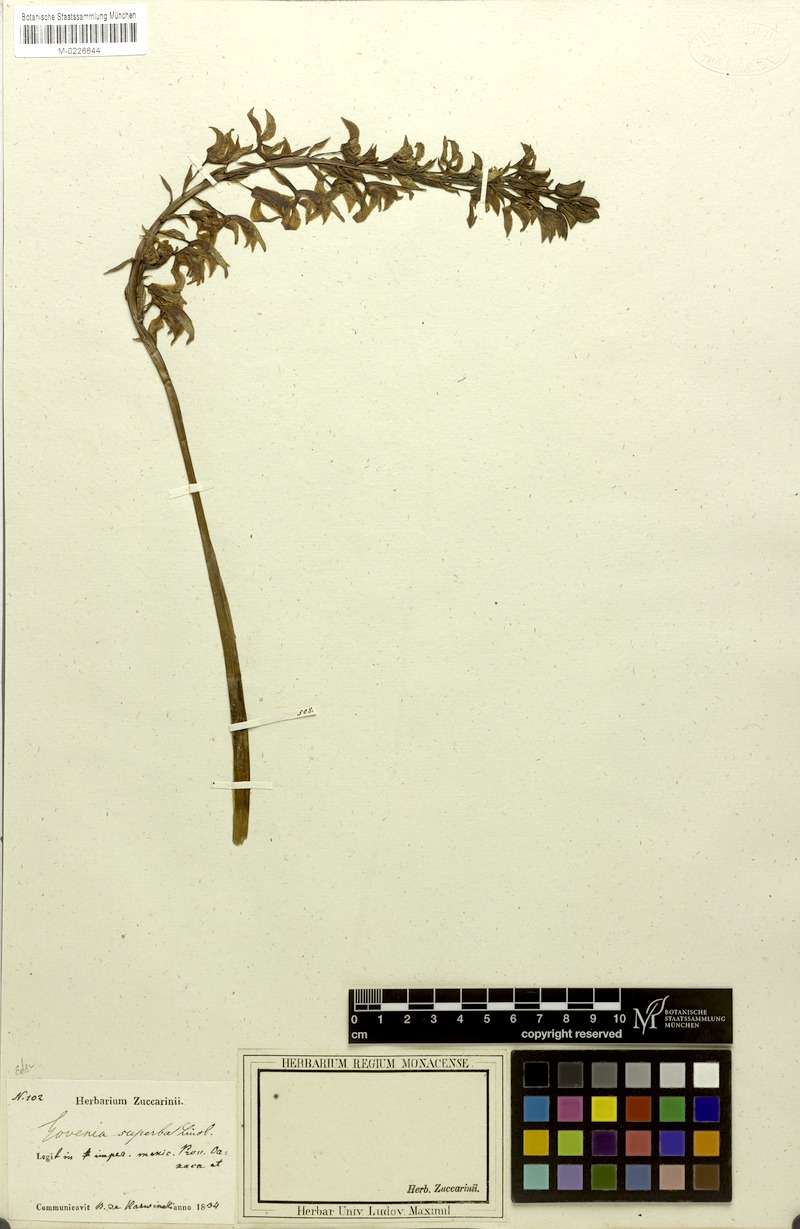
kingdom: Plantae
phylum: Tracheophyta
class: Liliopsida
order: Asparagales
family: Orchidaceae
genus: Govenia
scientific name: Govenia superba
